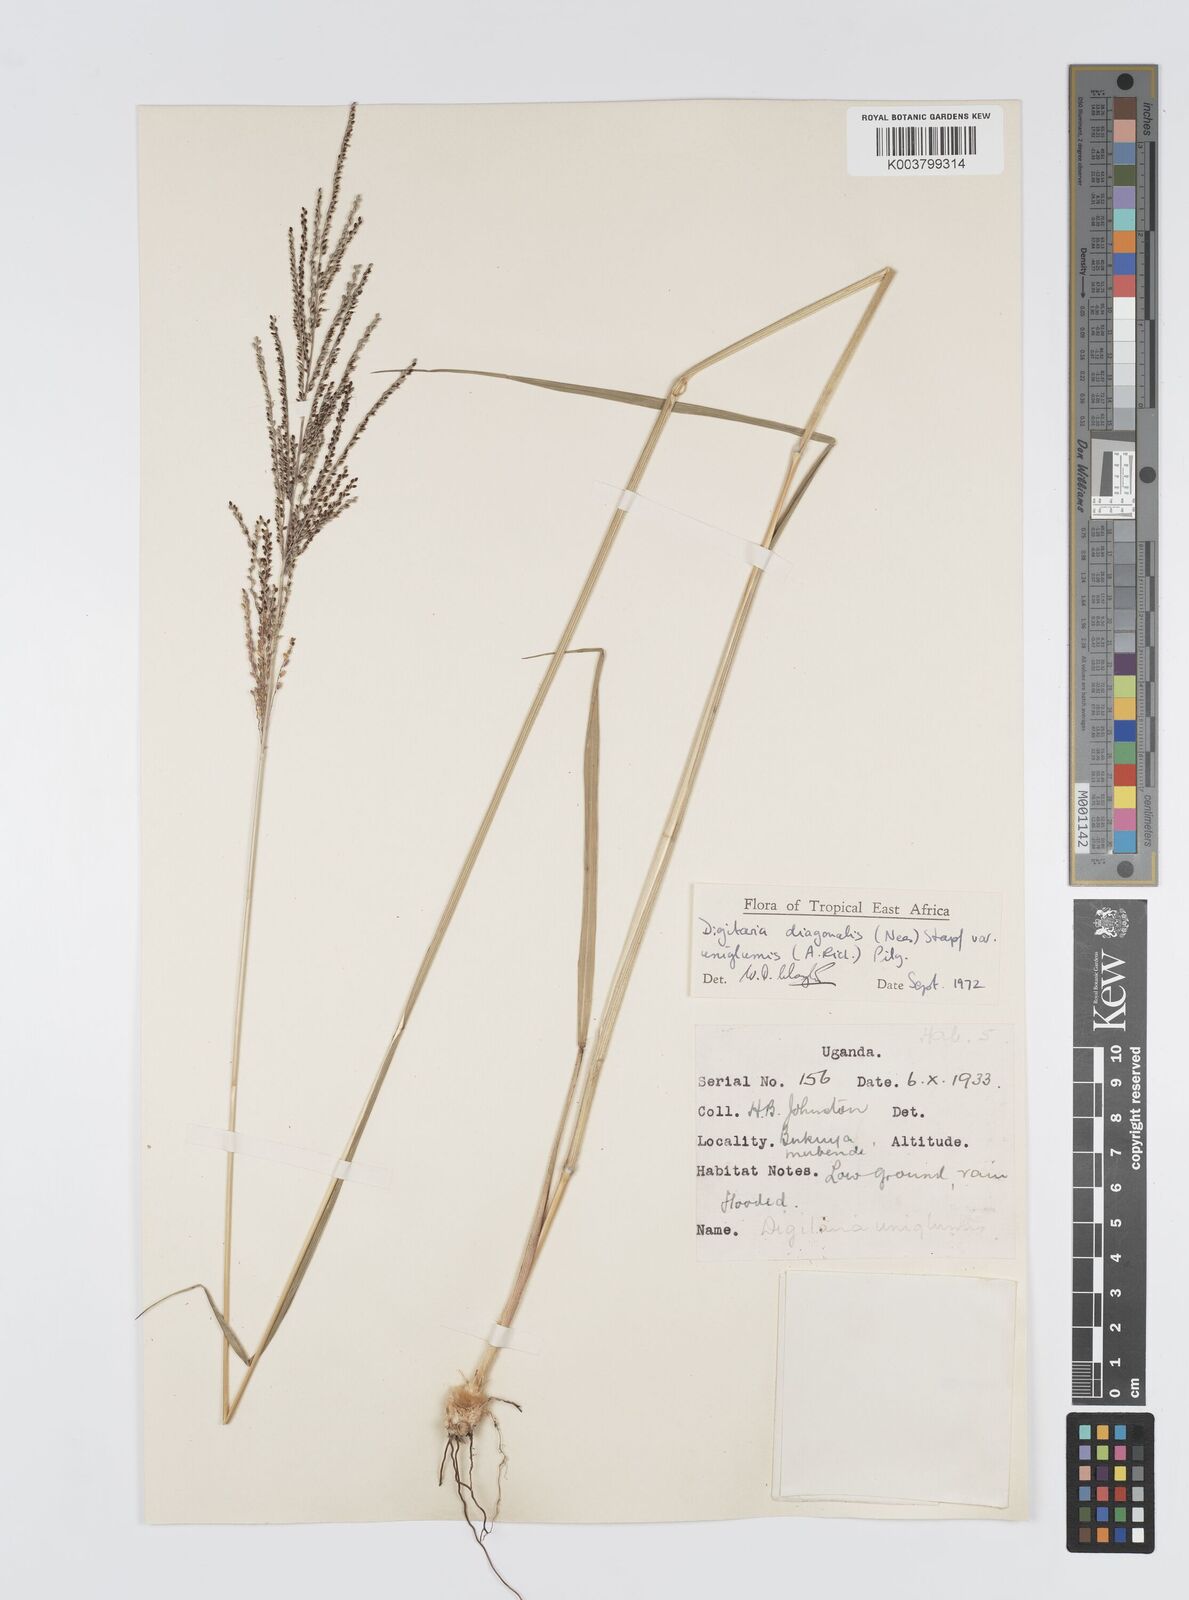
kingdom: Plantae
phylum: Tracheophyta
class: Liliopsida
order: Poales
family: Poaceae
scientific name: Poaceae
